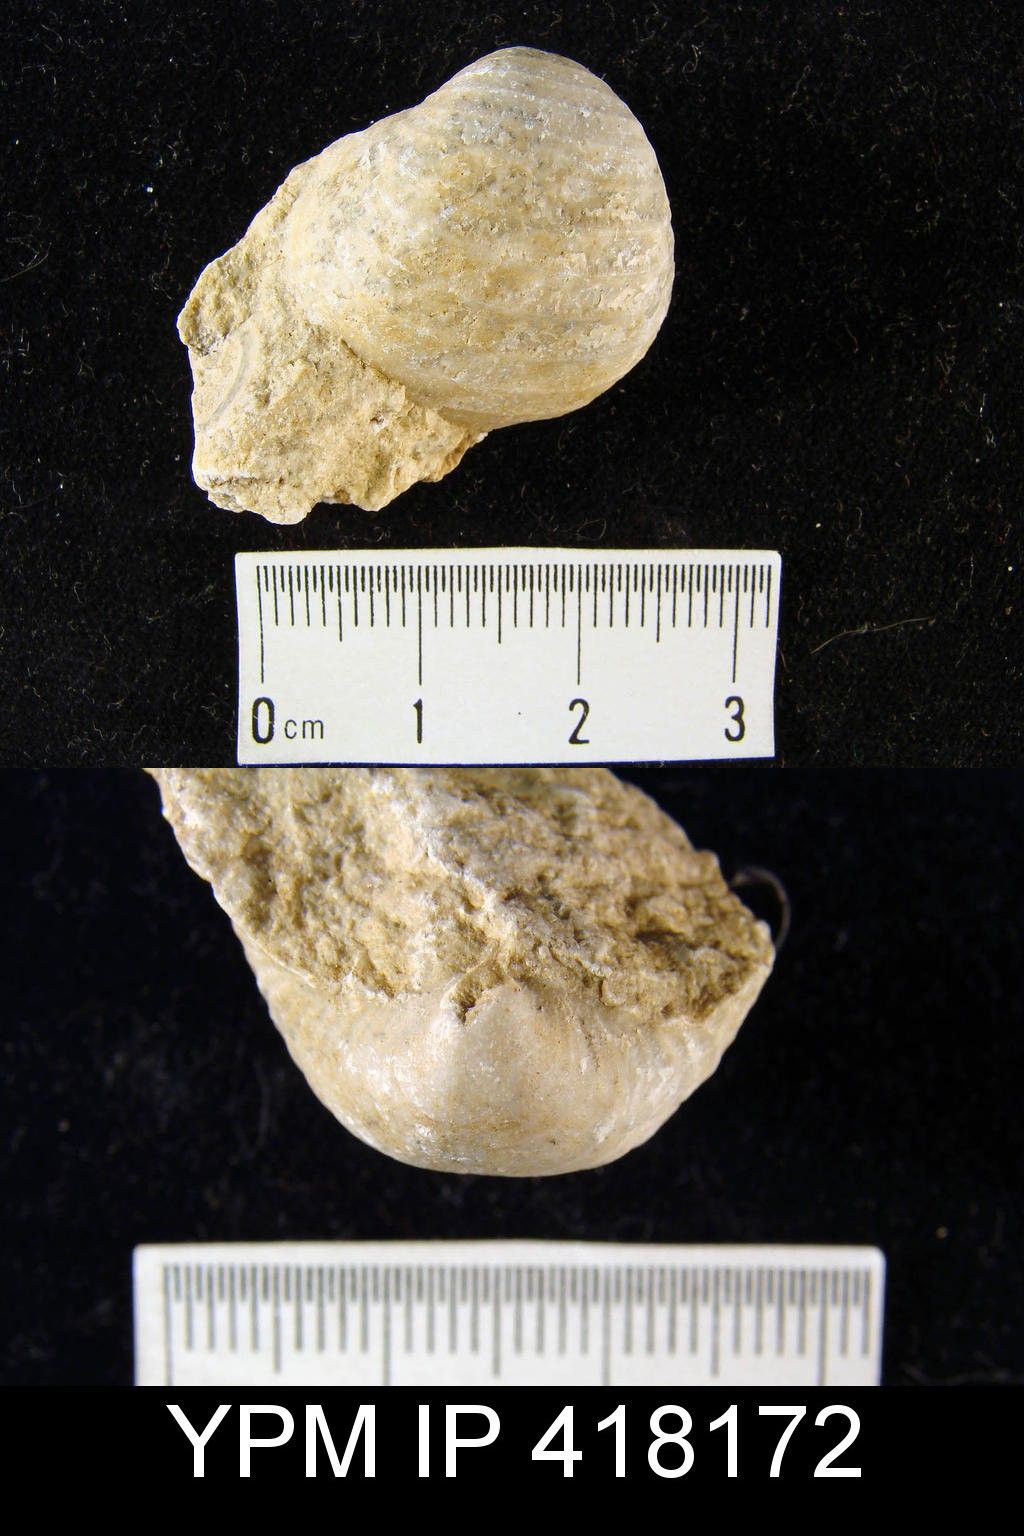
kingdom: Animalia
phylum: Brachiopoda
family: Echinoconchidae
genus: Calliprotonia
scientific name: Calliprotonia
